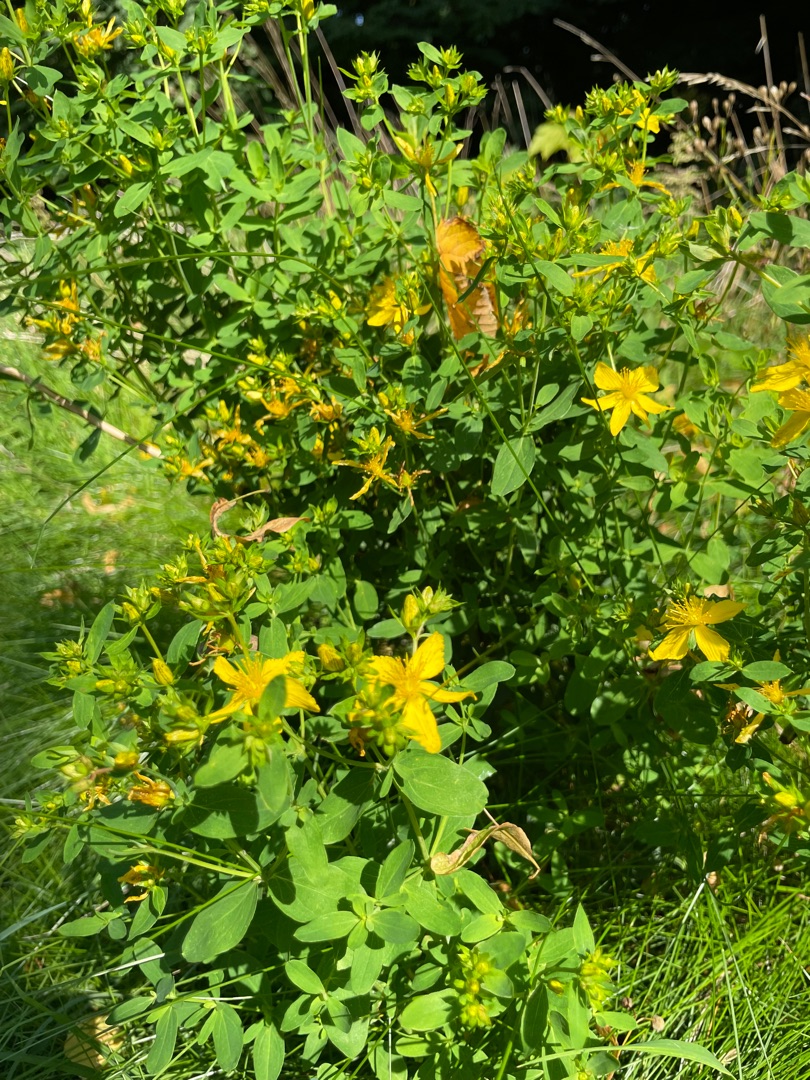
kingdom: Plantae
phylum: Tracheophyta
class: Magnoliopsida
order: Malpighiales
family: Hypericaceae
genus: Hypericum
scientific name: Hypericum perforatum
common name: Prikbladet perikon
